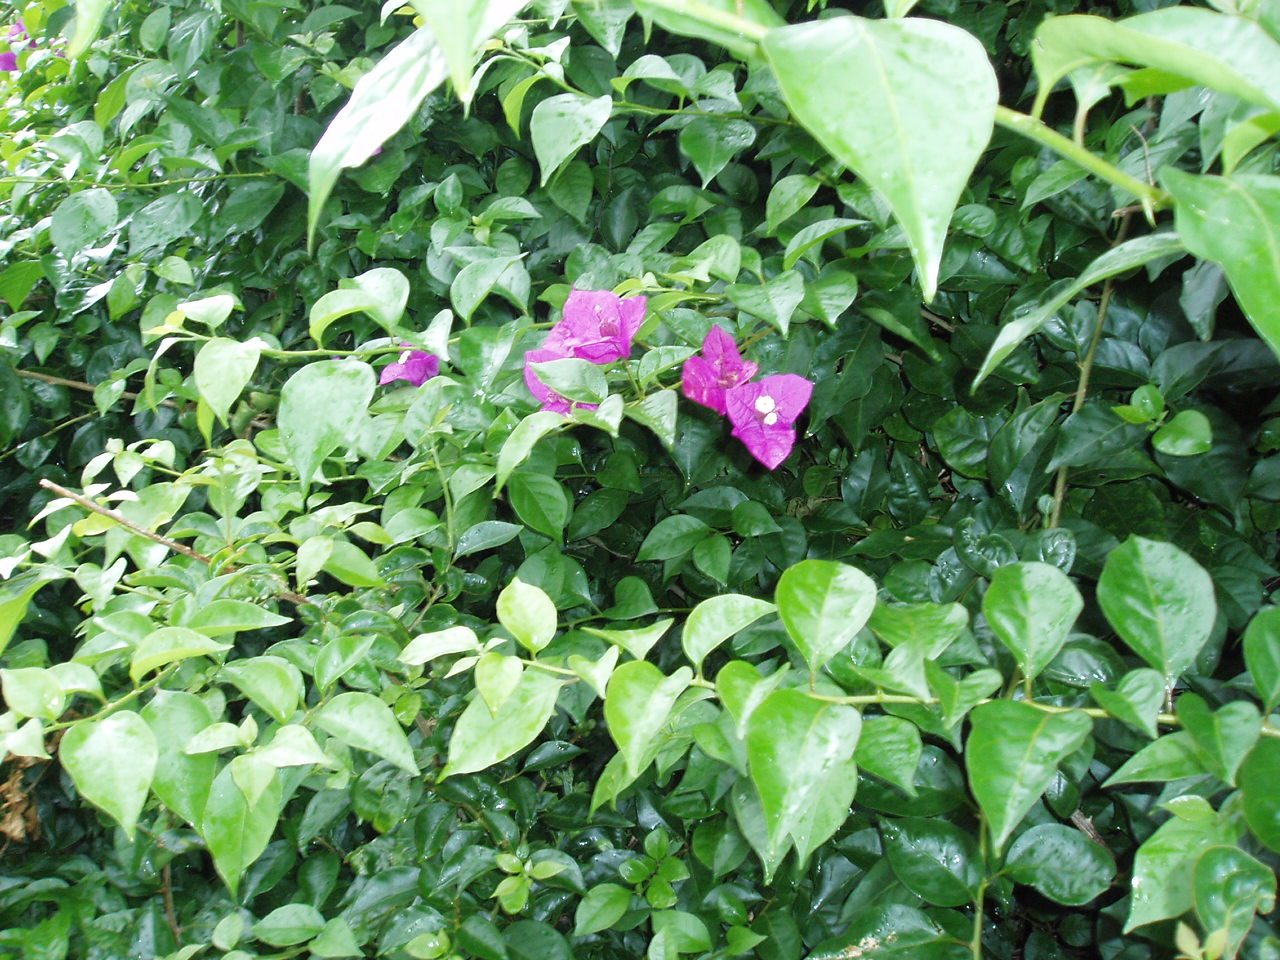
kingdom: Plantae
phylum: Tracheophyta
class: Magnoliopsida
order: Caryophyllales
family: Nyctaginaceae
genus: Bougainvillea
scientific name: Bougainvillea glabra
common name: Paperflower
